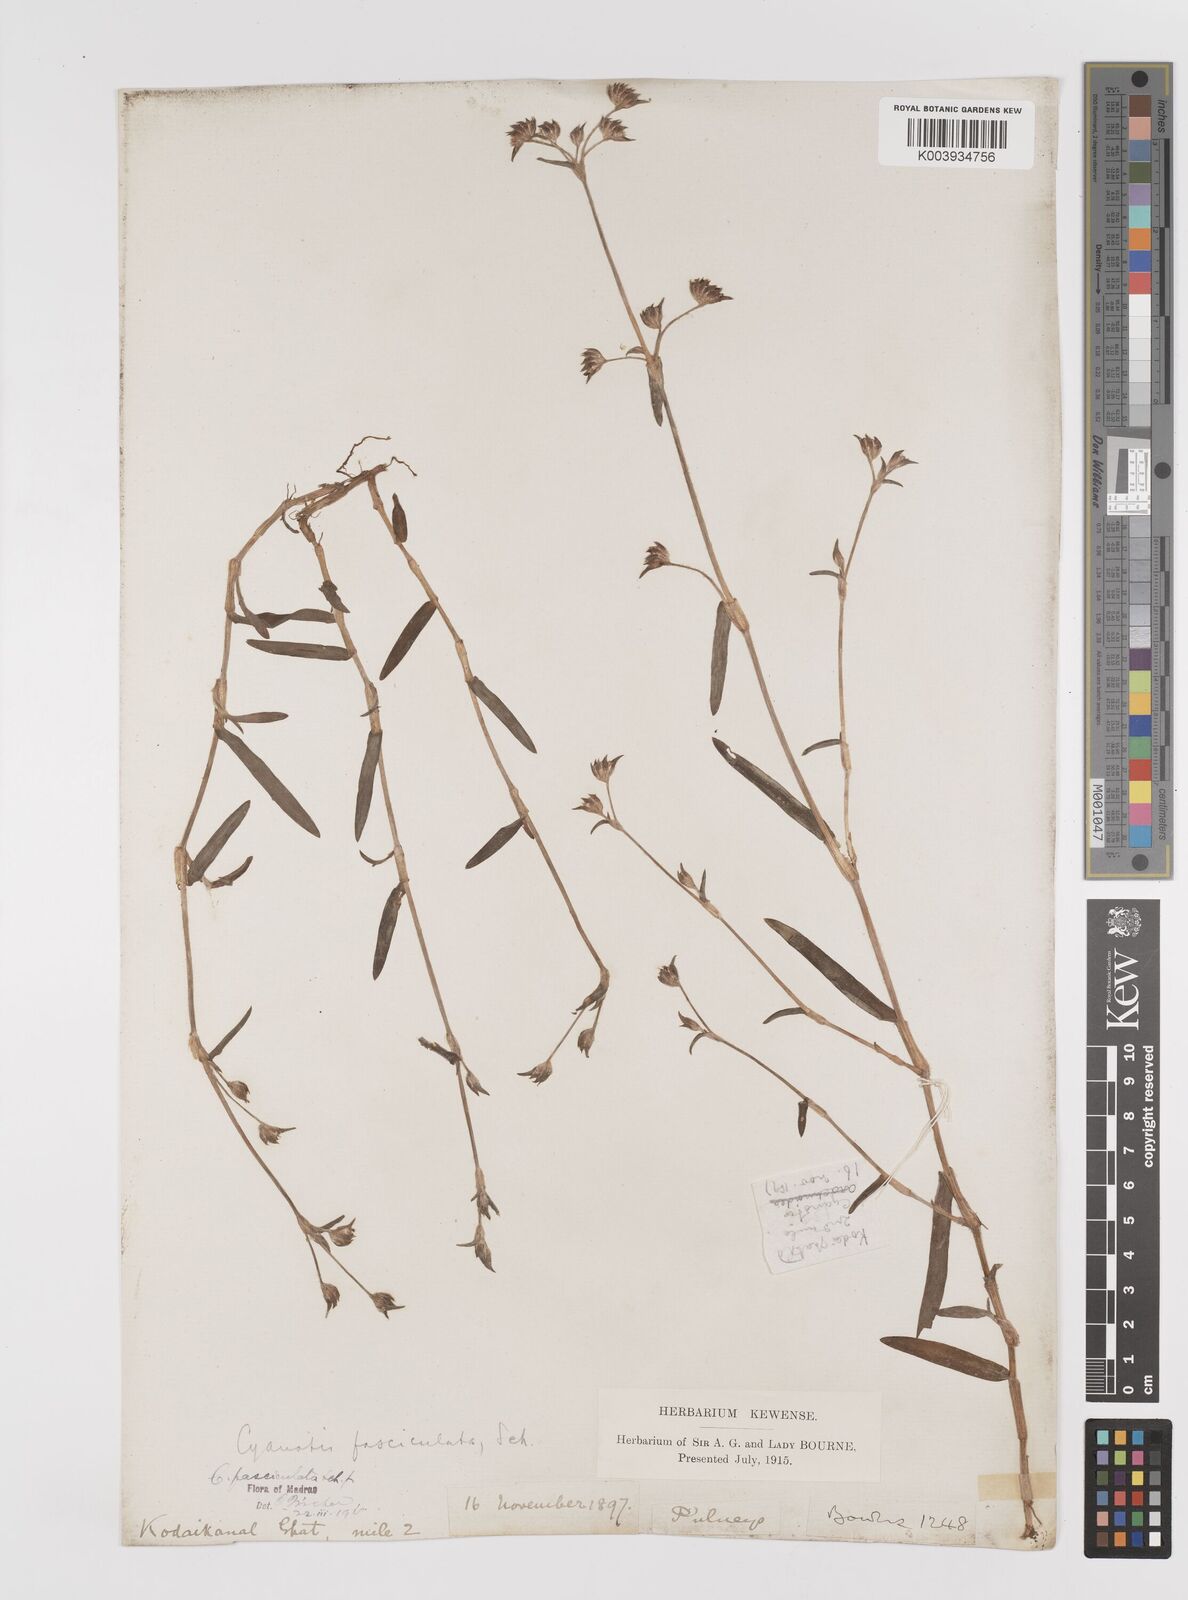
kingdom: Plantae
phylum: Tracheophyta
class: Liliopsida
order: Commelinales
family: Commelinaceae
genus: Cyanotis
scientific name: Cyanotis fasciculata
